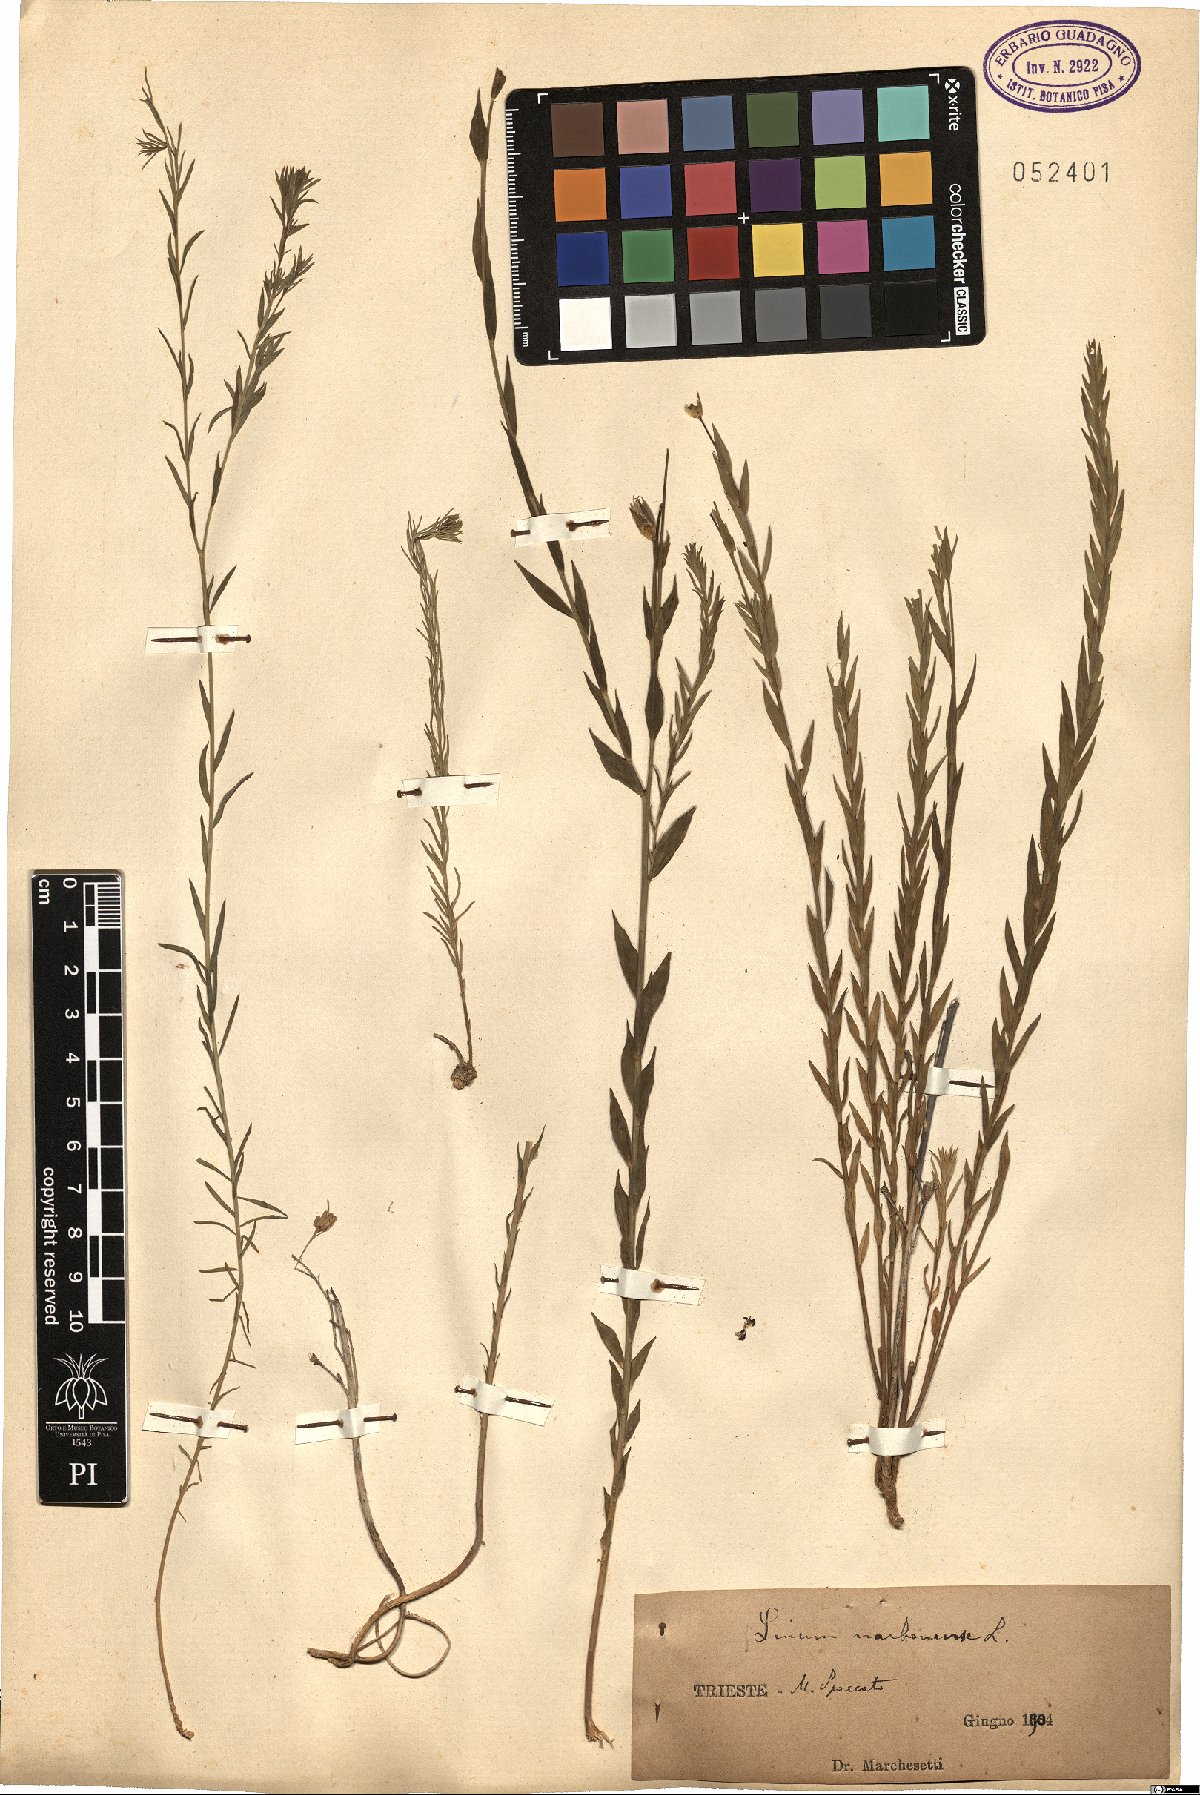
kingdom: Plantae
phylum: Tracheophyta
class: Magnoliopsida
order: Malpighiales
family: Linaceae
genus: Linum
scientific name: Linum narbonense
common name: Flax
